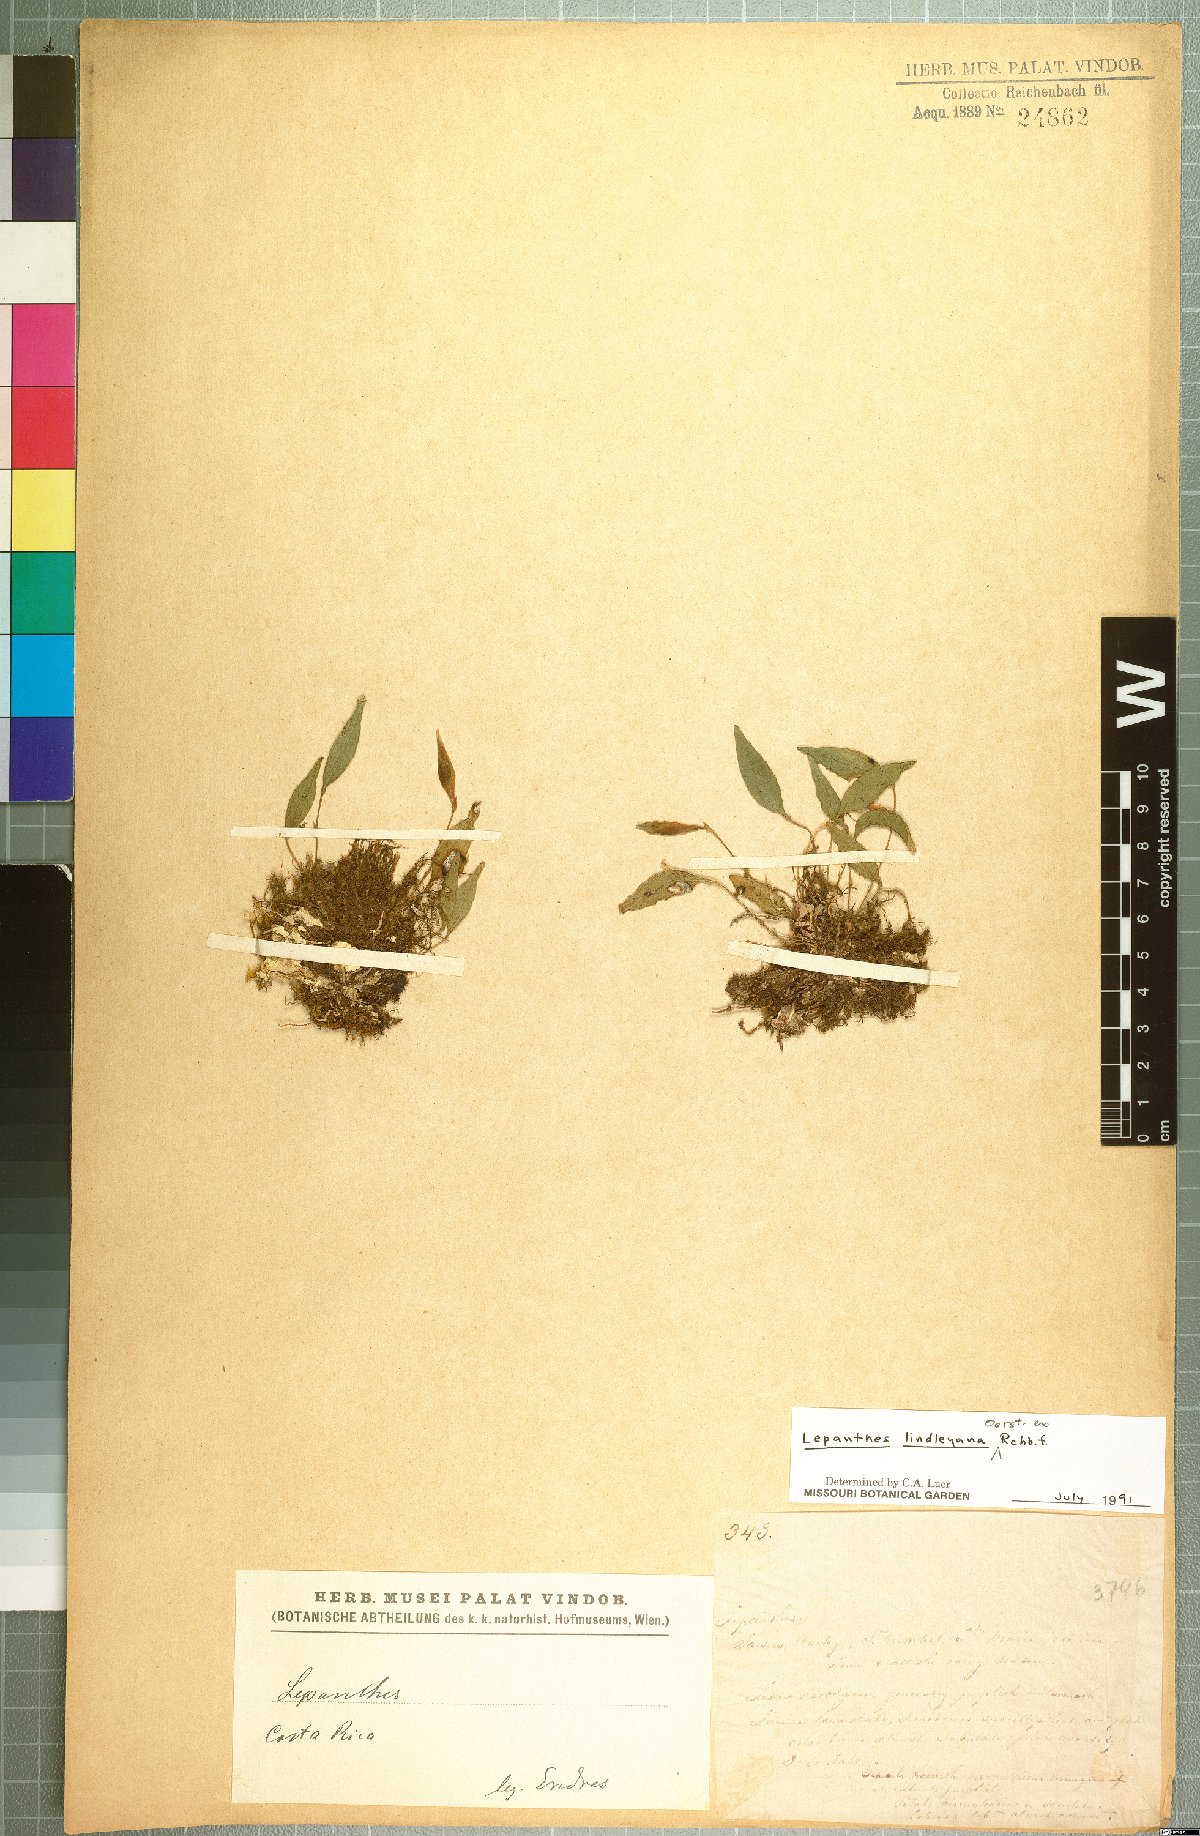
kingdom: Plantae
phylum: Tracheophyta
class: Liliopsida
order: Asparagales
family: Orchidaceae
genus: Lepanthes
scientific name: Lepanthes lindleyana
